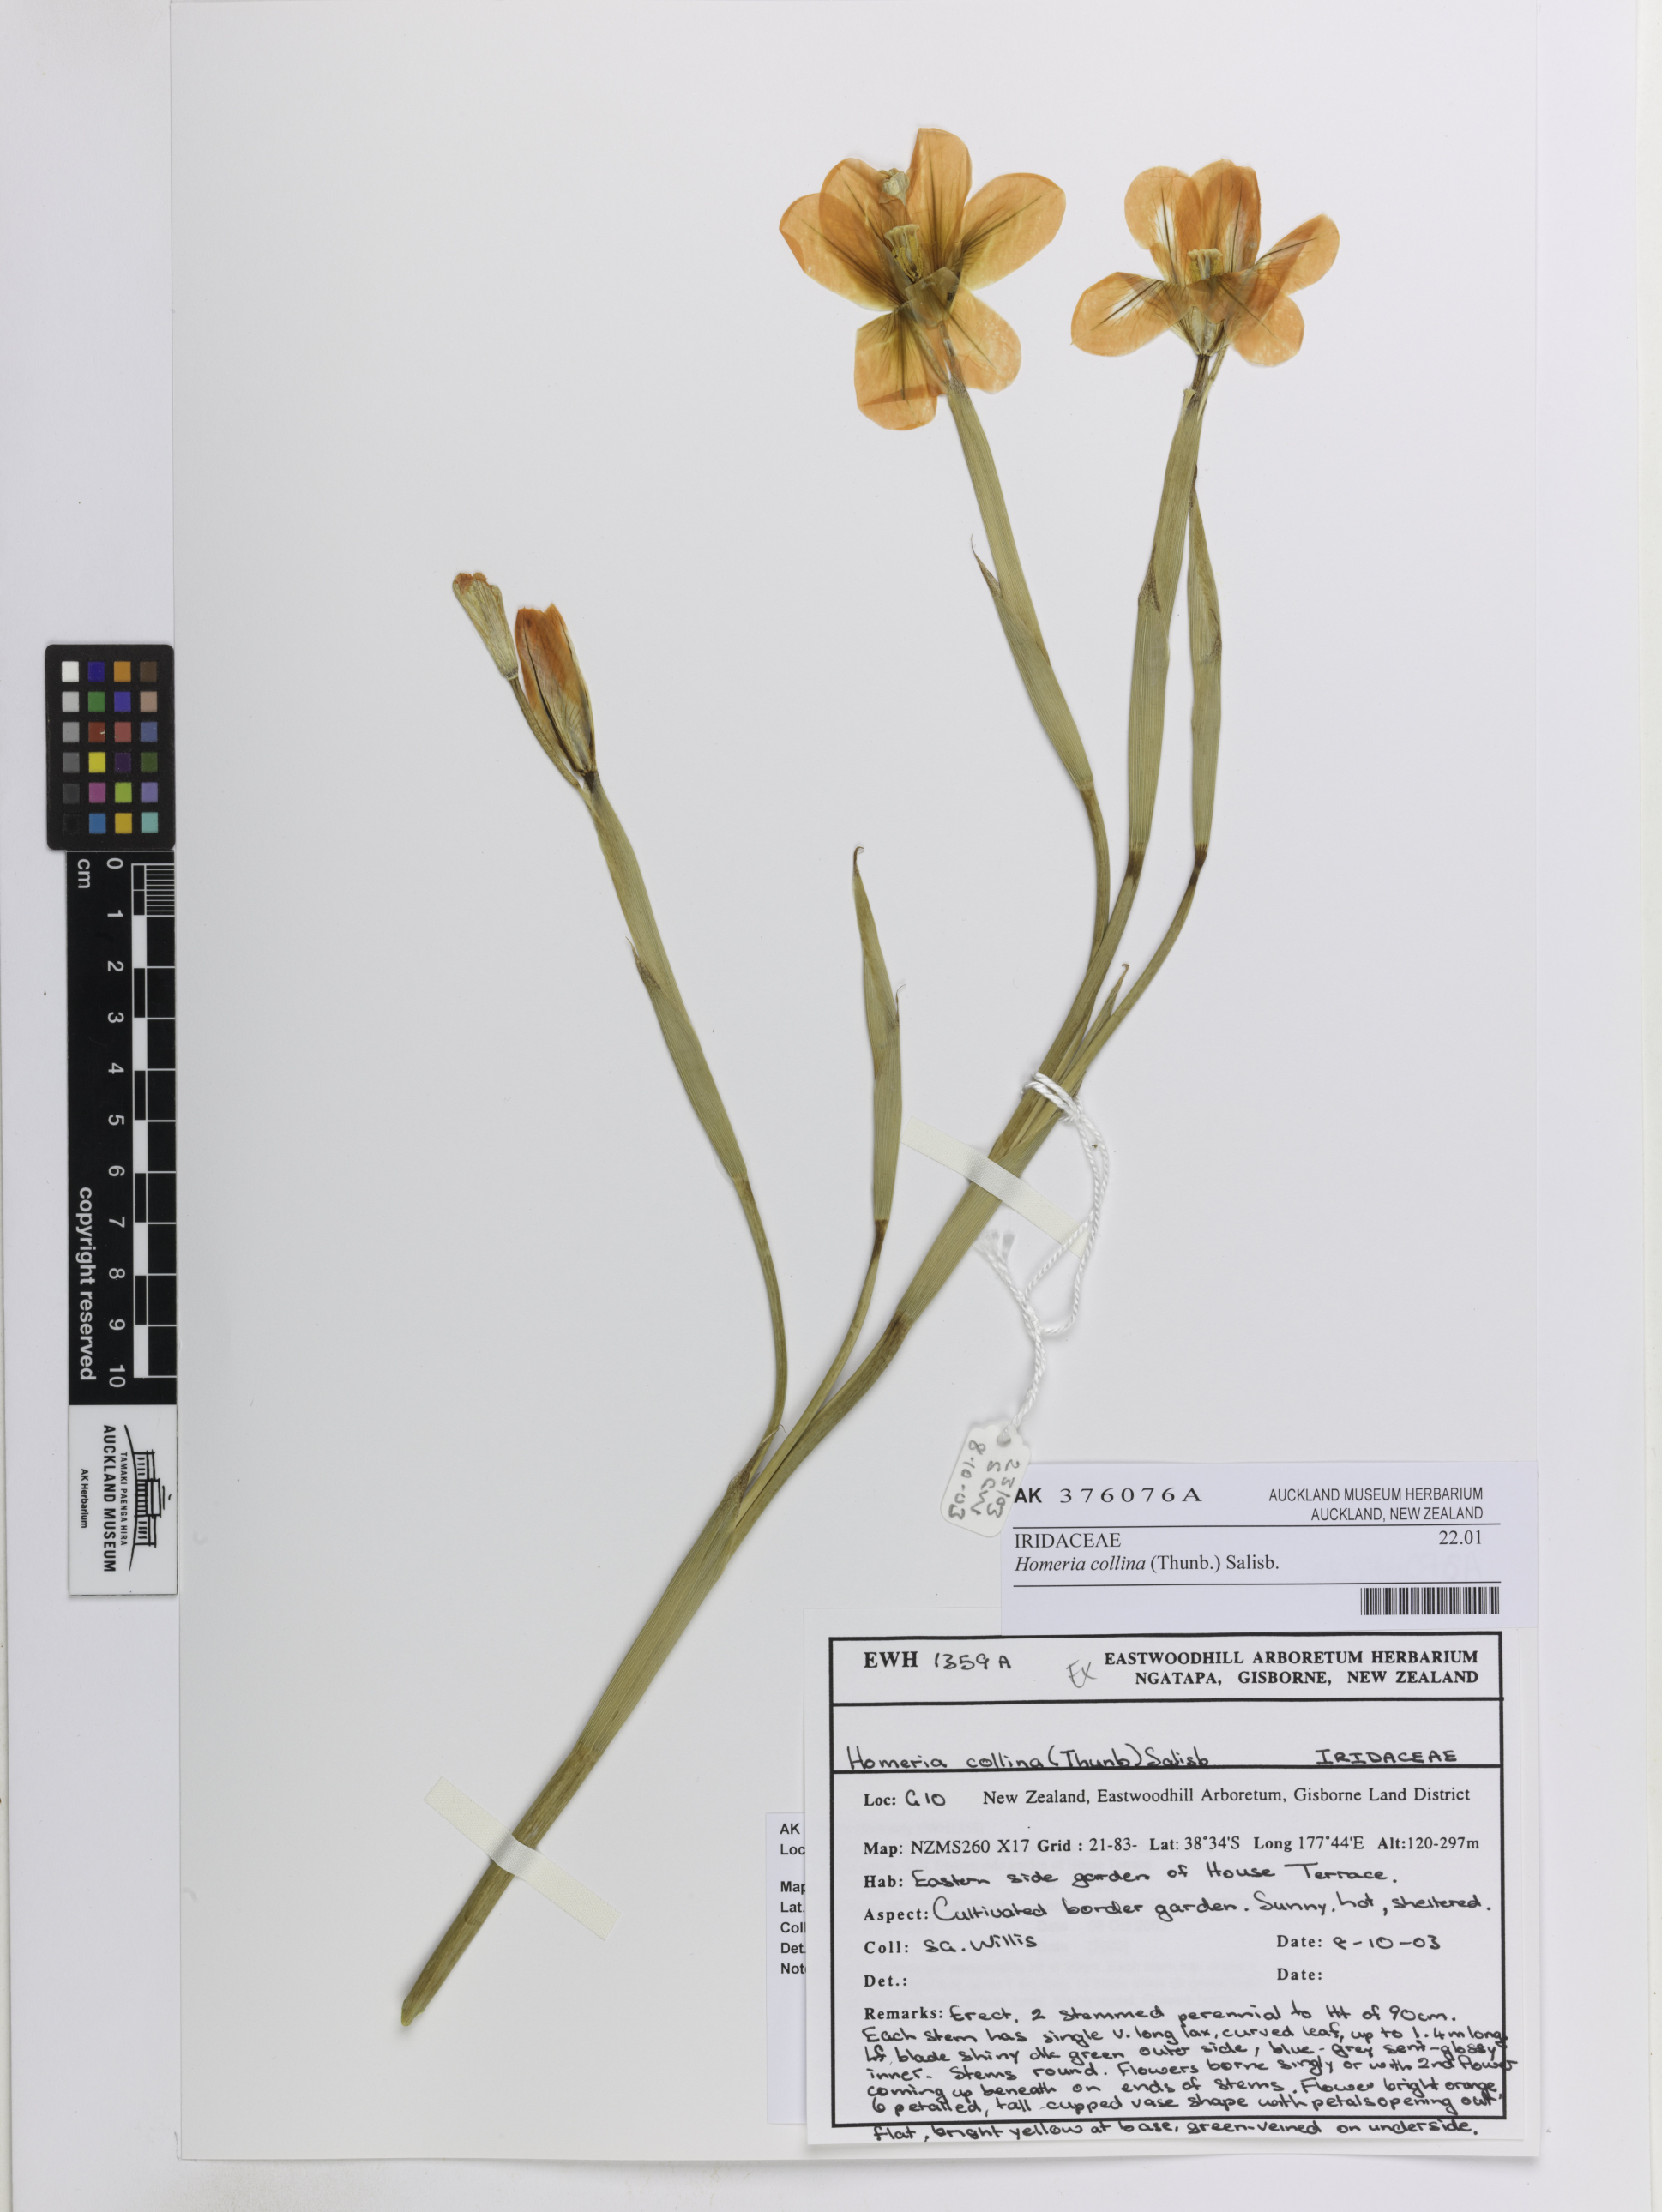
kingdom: Plantae
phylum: Tracheophyta
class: Liliopsida
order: Asparagales
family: Iridaceae
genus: Moraea
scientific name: Moraea collina
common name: Cape-tulip
